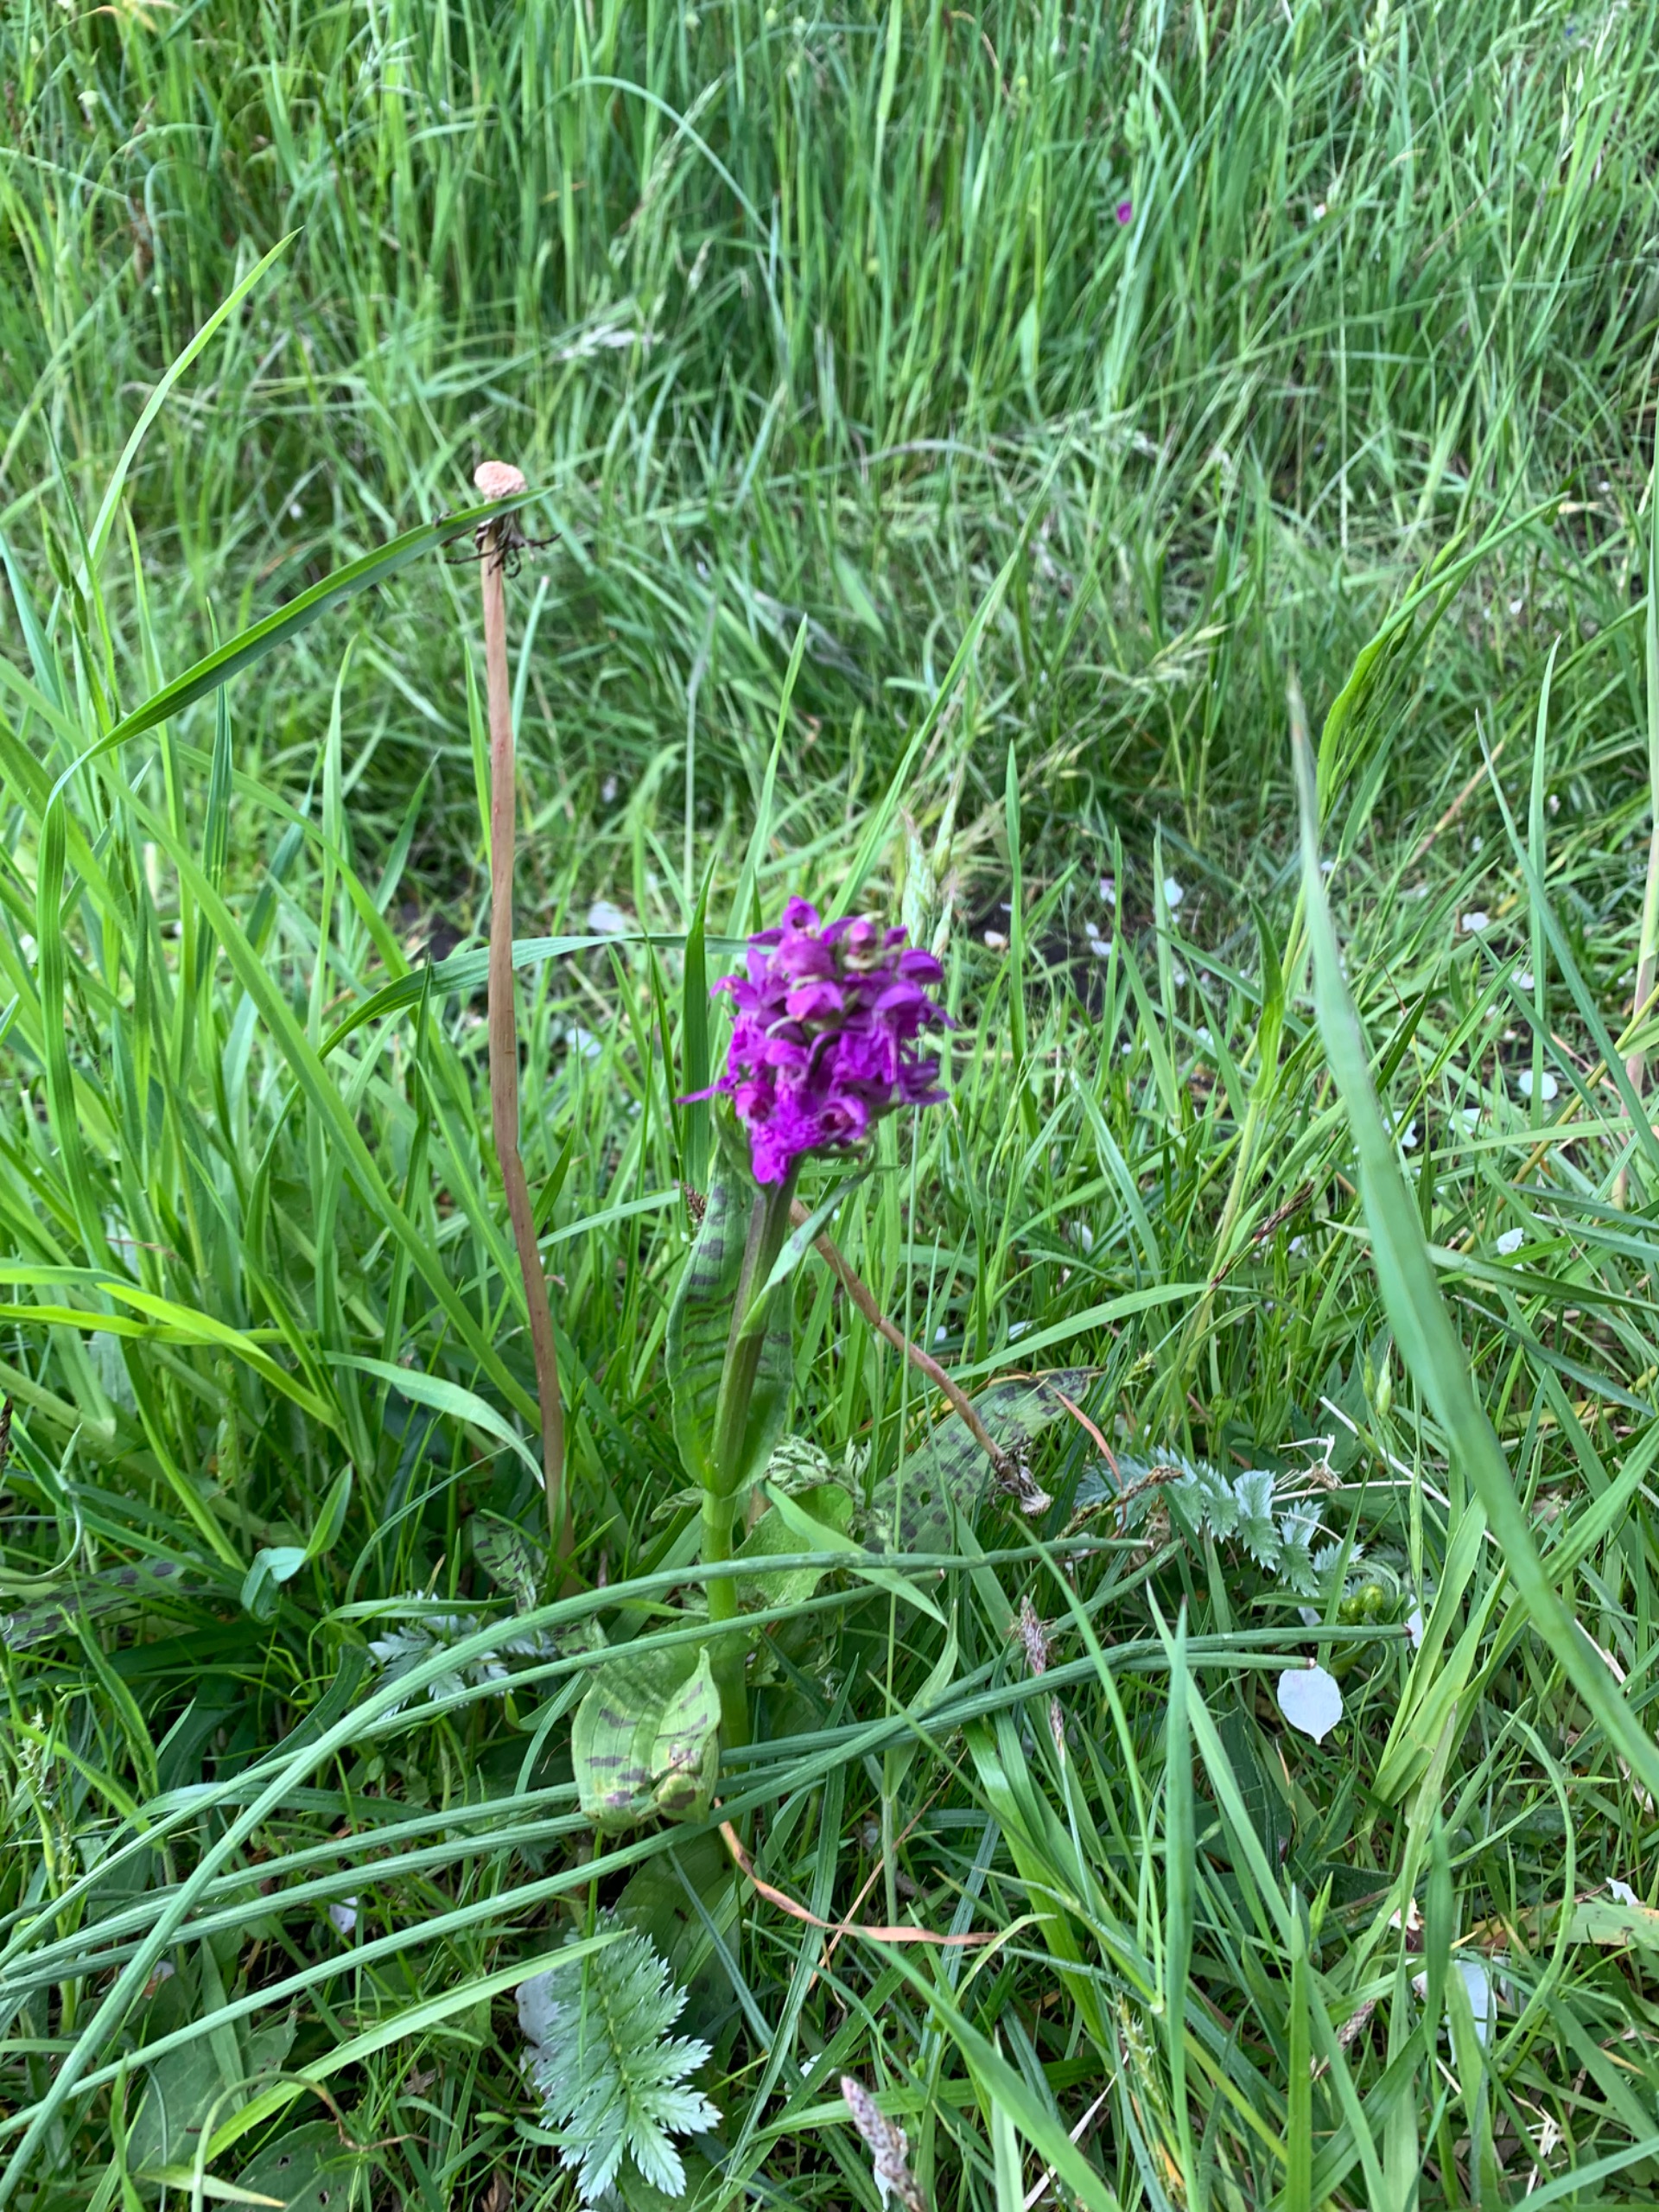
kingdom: Plantae
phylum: Tracheophyta
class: Liliopsida
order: Asparagales
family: Orchidaceae
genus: Dactylorhiza
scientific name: Dactylorhiza majalis
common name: Maj-gøgeurt
